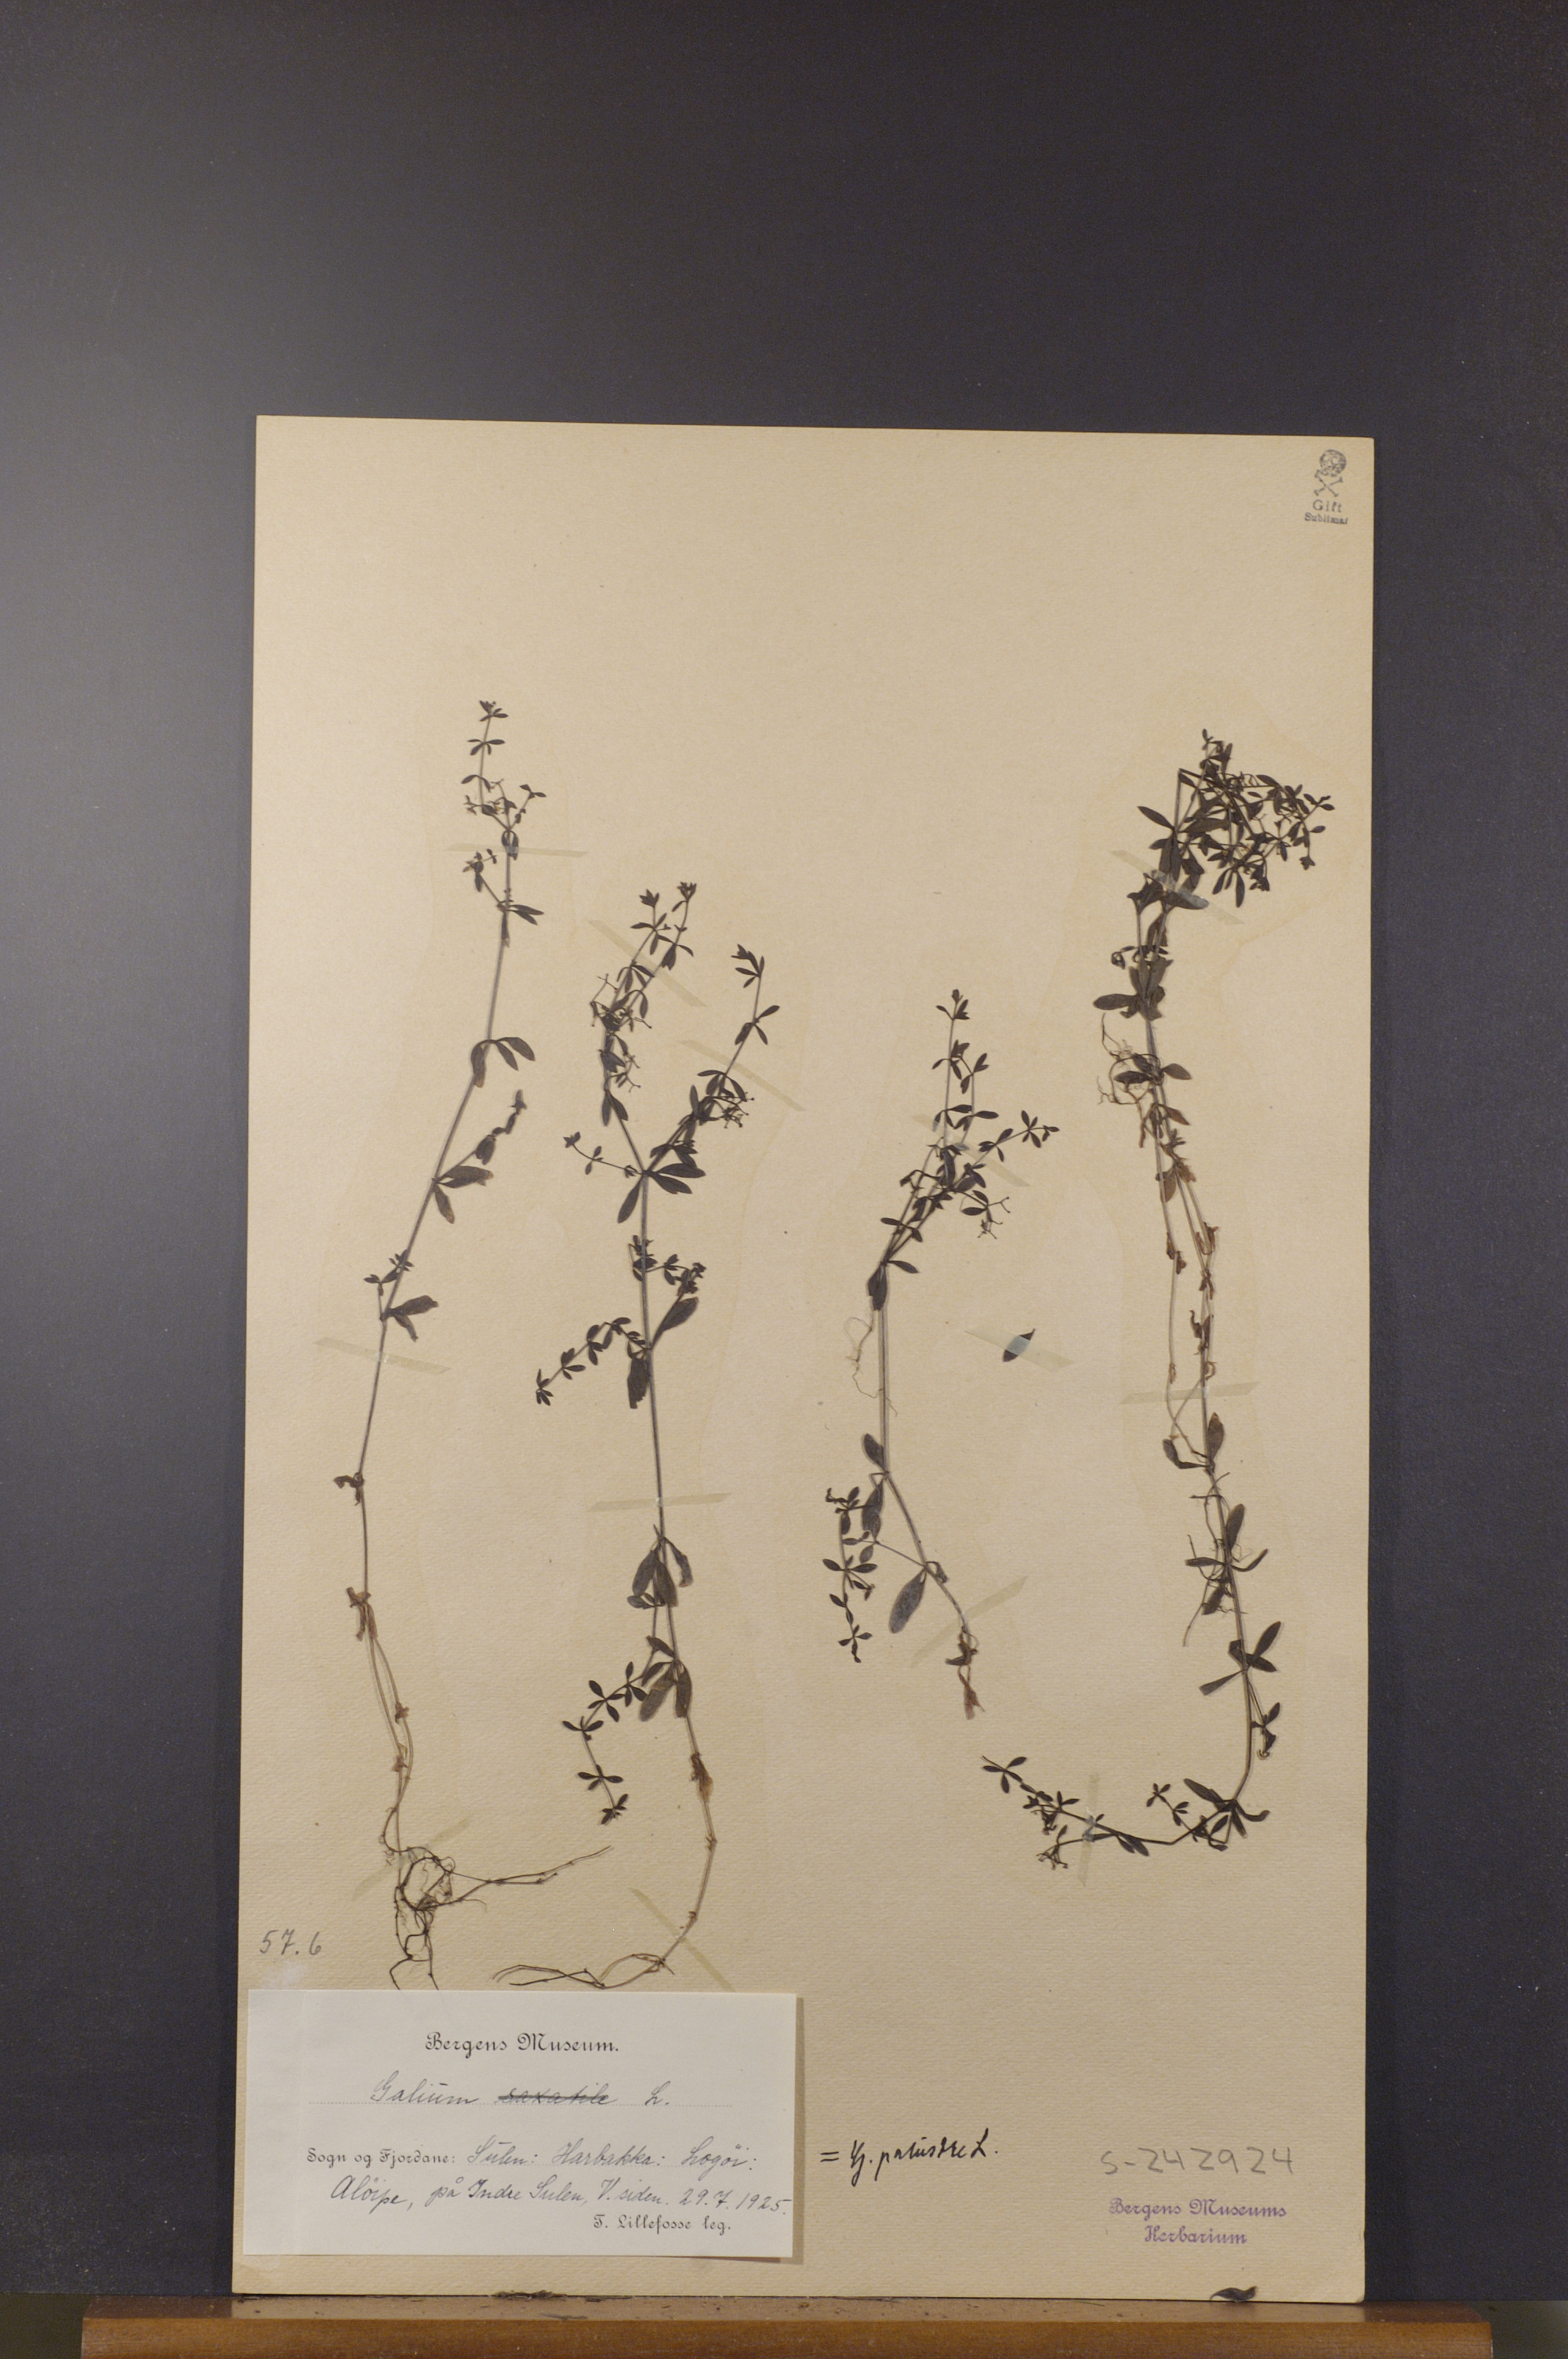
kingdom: Plantae
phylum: Tracheophyta
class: Magnoliopsida
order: Gentianales
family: Rubiaceae
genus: Galium
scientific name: Galium palustre
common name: Common marsh-bedstraw
